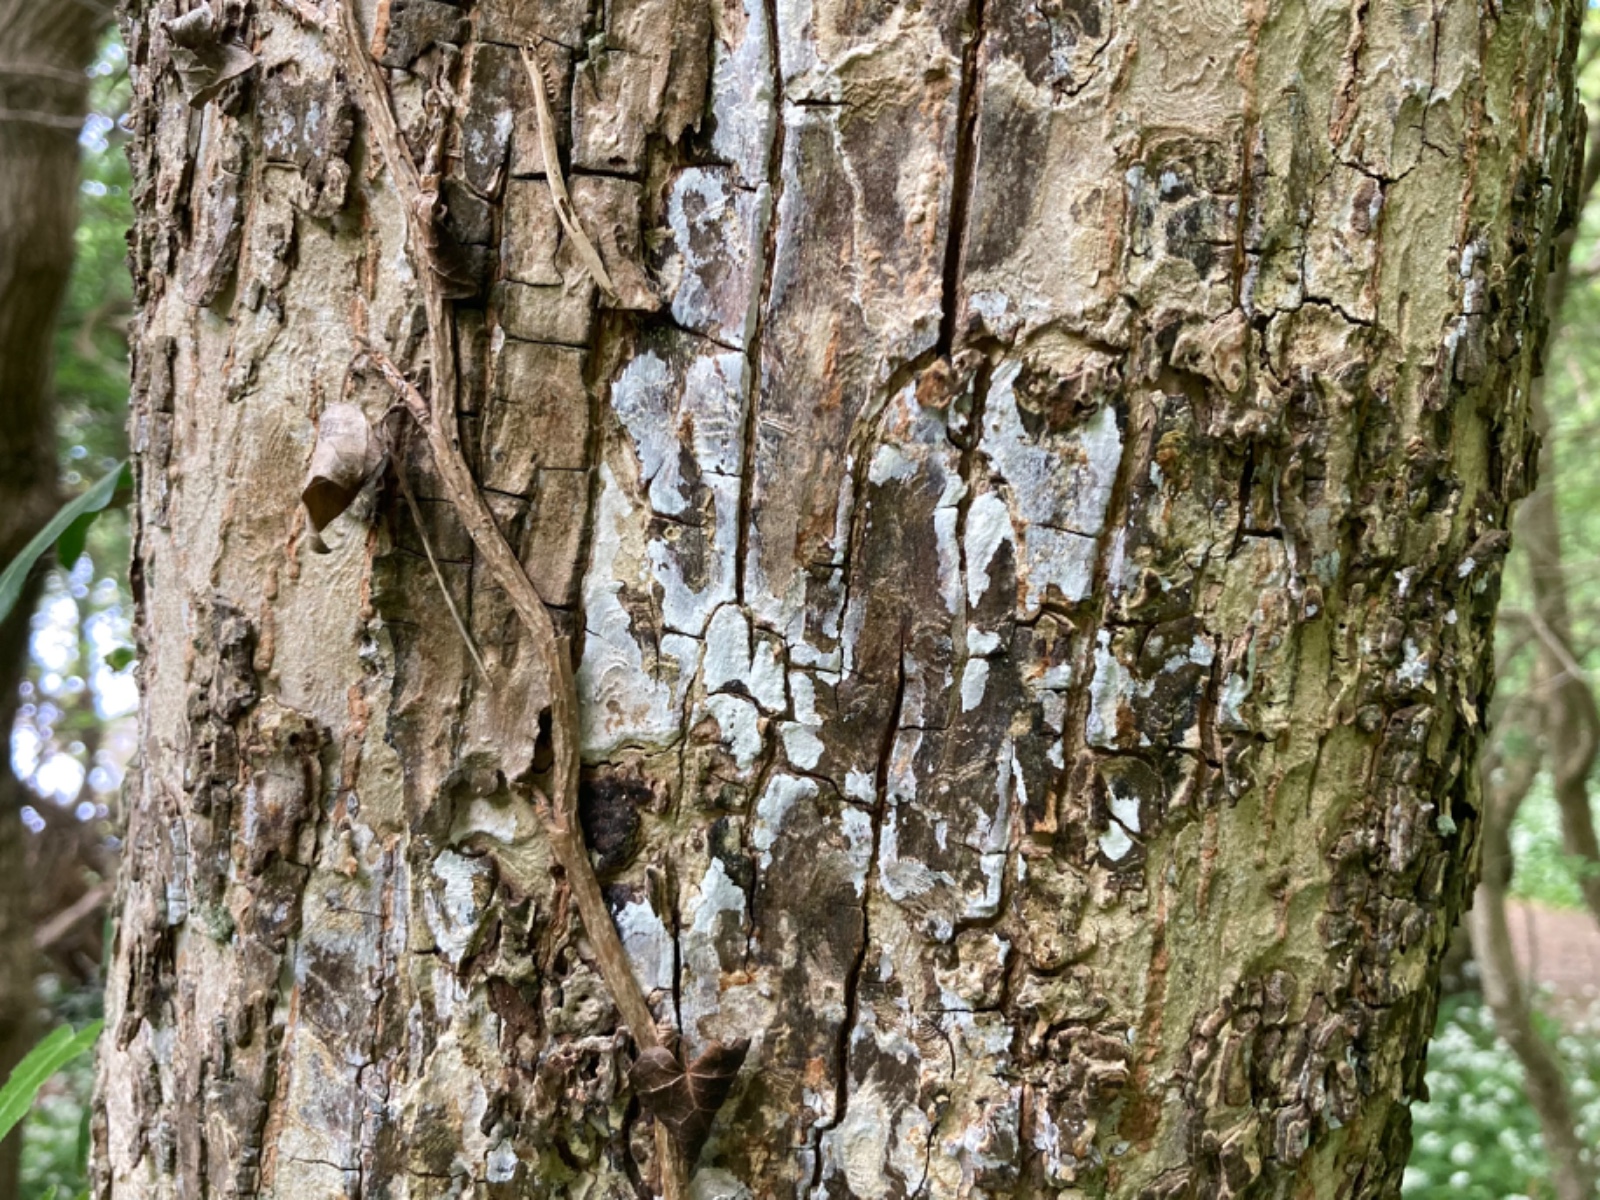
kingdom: Fungi
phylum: Basidiomycota
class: Agaricomycetes
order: Agaricales
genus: Dendrothele
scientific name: Dendrothele acerina
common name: navr-kalkplet
